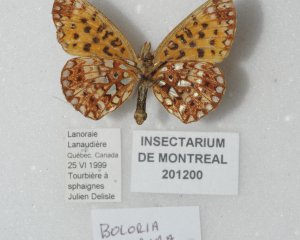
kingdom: Animalia
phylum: Arthropoda
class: Insecta
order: Lepidoptera
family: Nymphalidae
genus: Boloria
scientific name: Boloria selene
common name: Silver-bordered Fritillary
